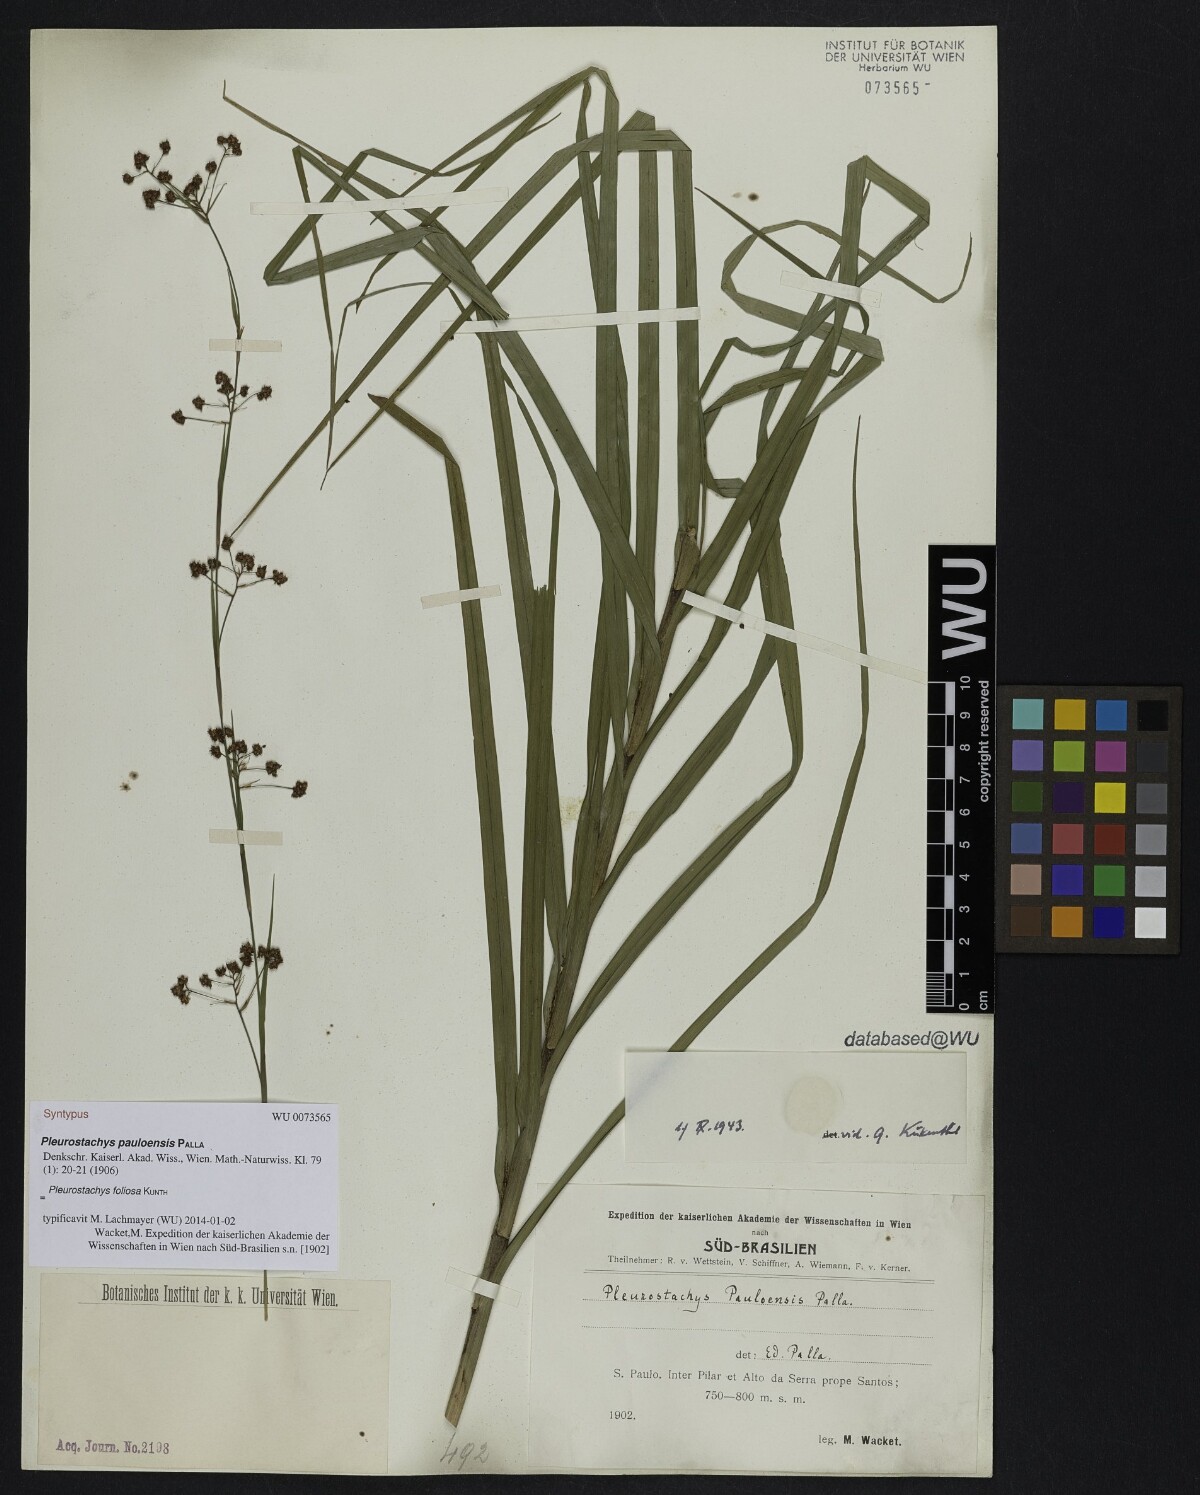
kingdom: Plantae
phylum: Tracheophyta
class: Liliopsida
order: Poales
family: Cyperaceae
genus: Rhynchospora
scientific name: Rhynchospora foliosa
